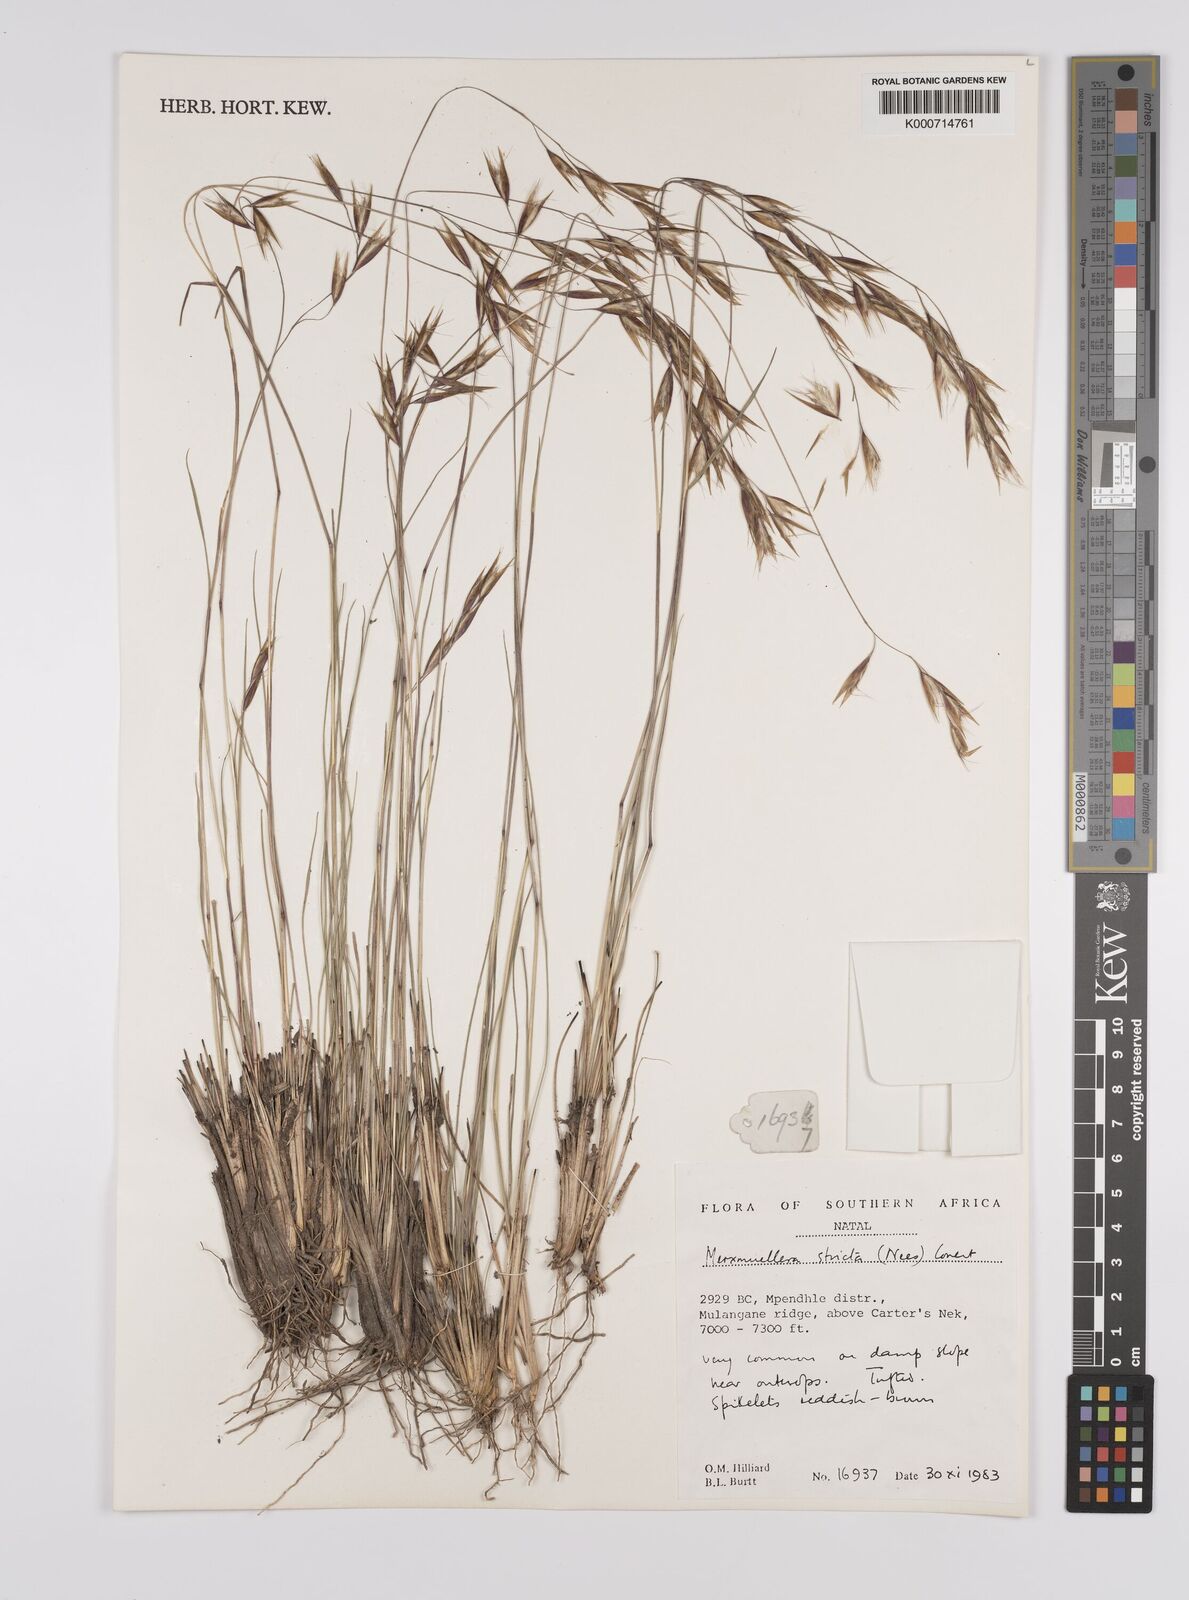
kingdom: Plantae
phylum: Tracheophyta
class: Liliopsida
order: Poales
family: Poaceae
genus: Rytidosperma
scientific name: Rytidosperma
